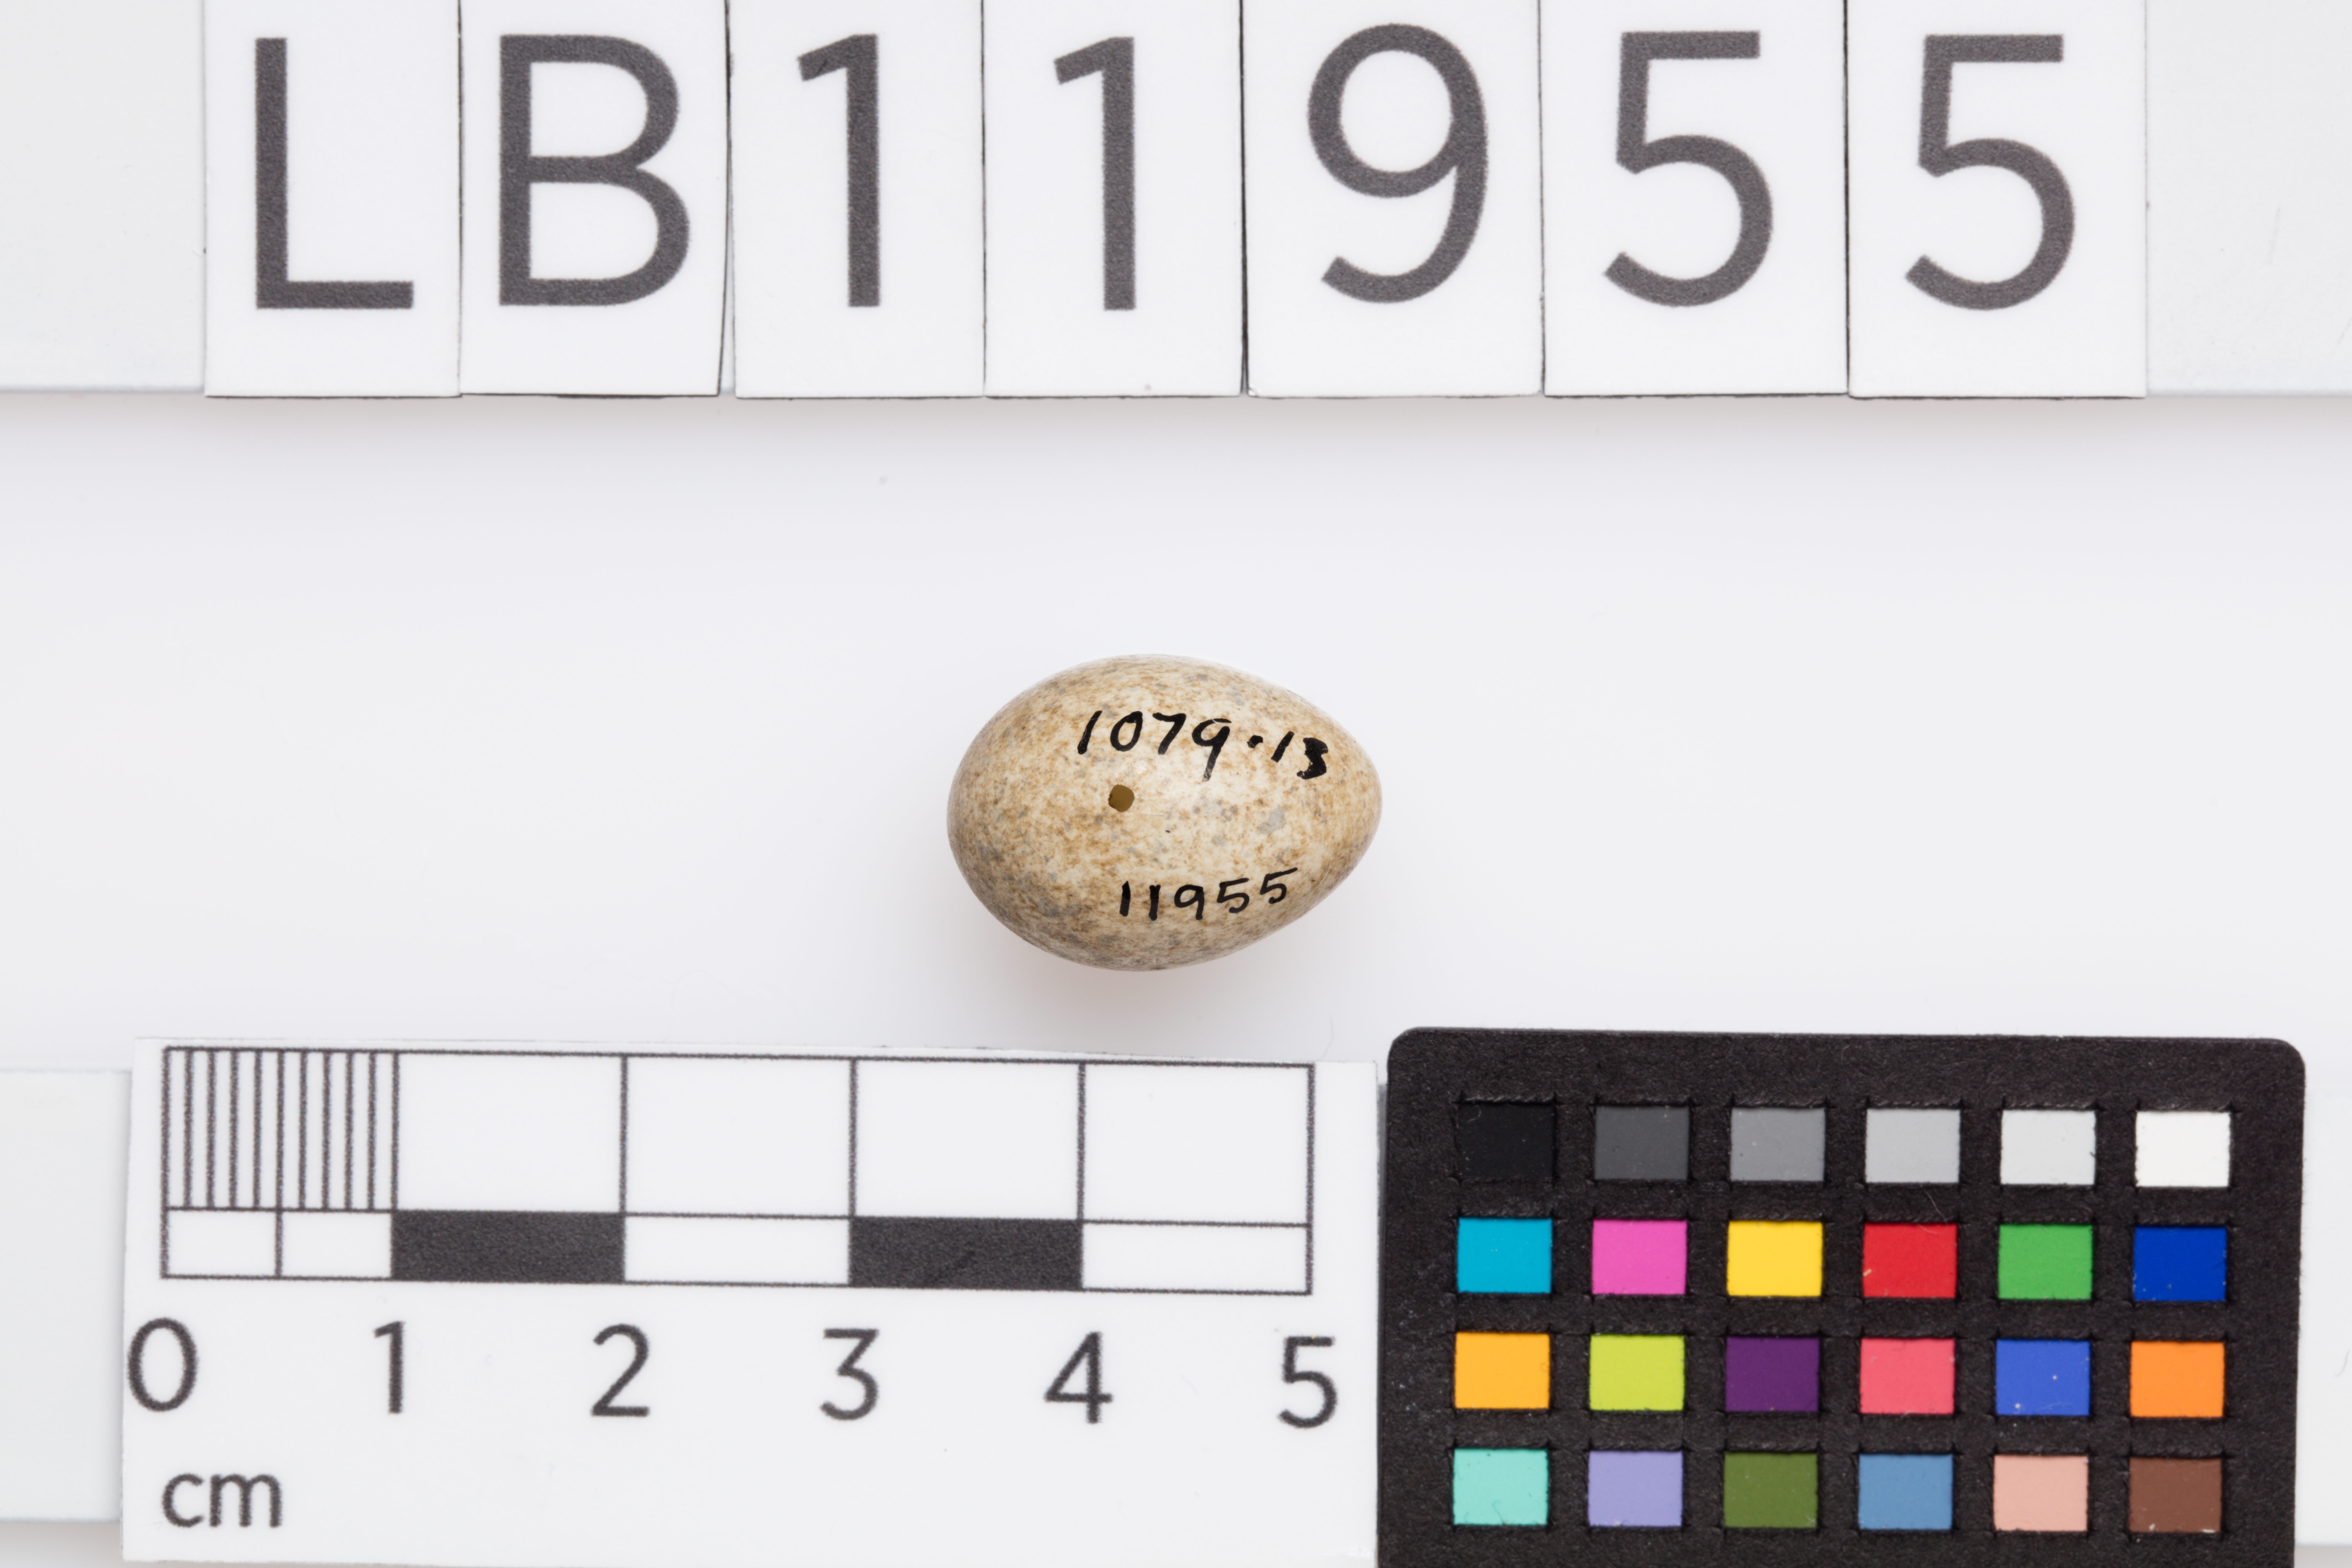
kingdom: Animalia
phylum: Chordata
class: Aves
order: Passeriformes
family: Sylviidae
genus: Sylvia
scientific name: Sylvia communis
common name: Common whitethroat
